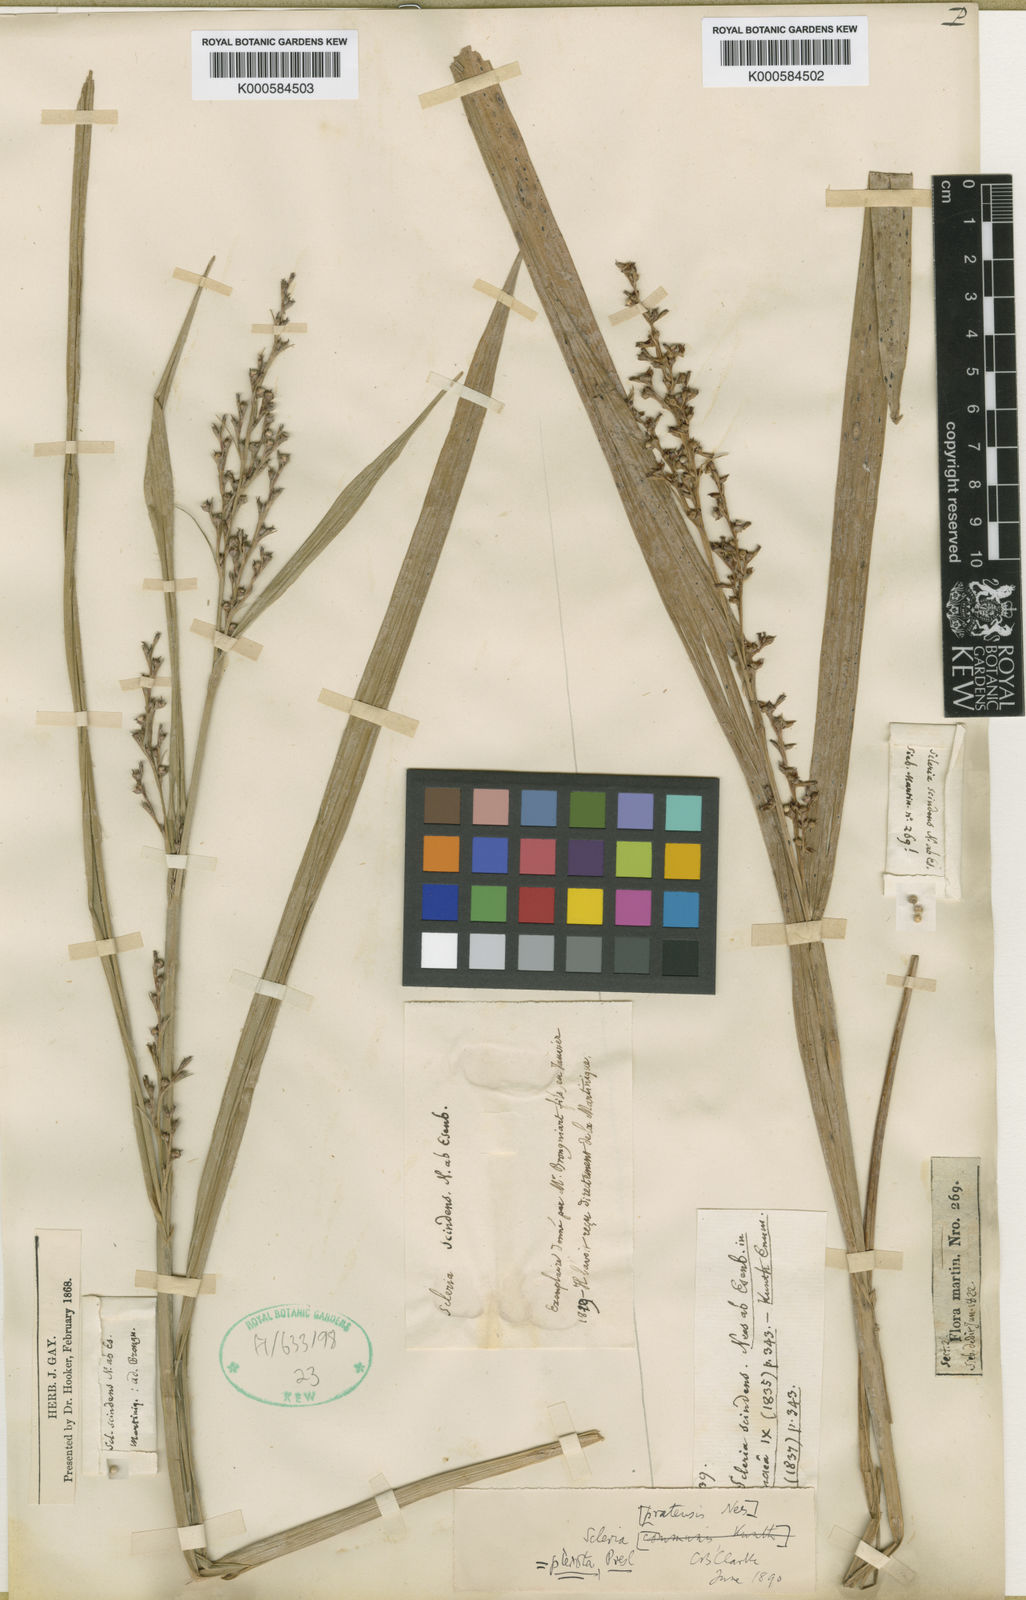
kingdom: Plantae
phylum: Tracheophyta
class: Liliopsida
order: Poales
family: Cyperaceae
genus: Scleria
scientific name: Scleria
